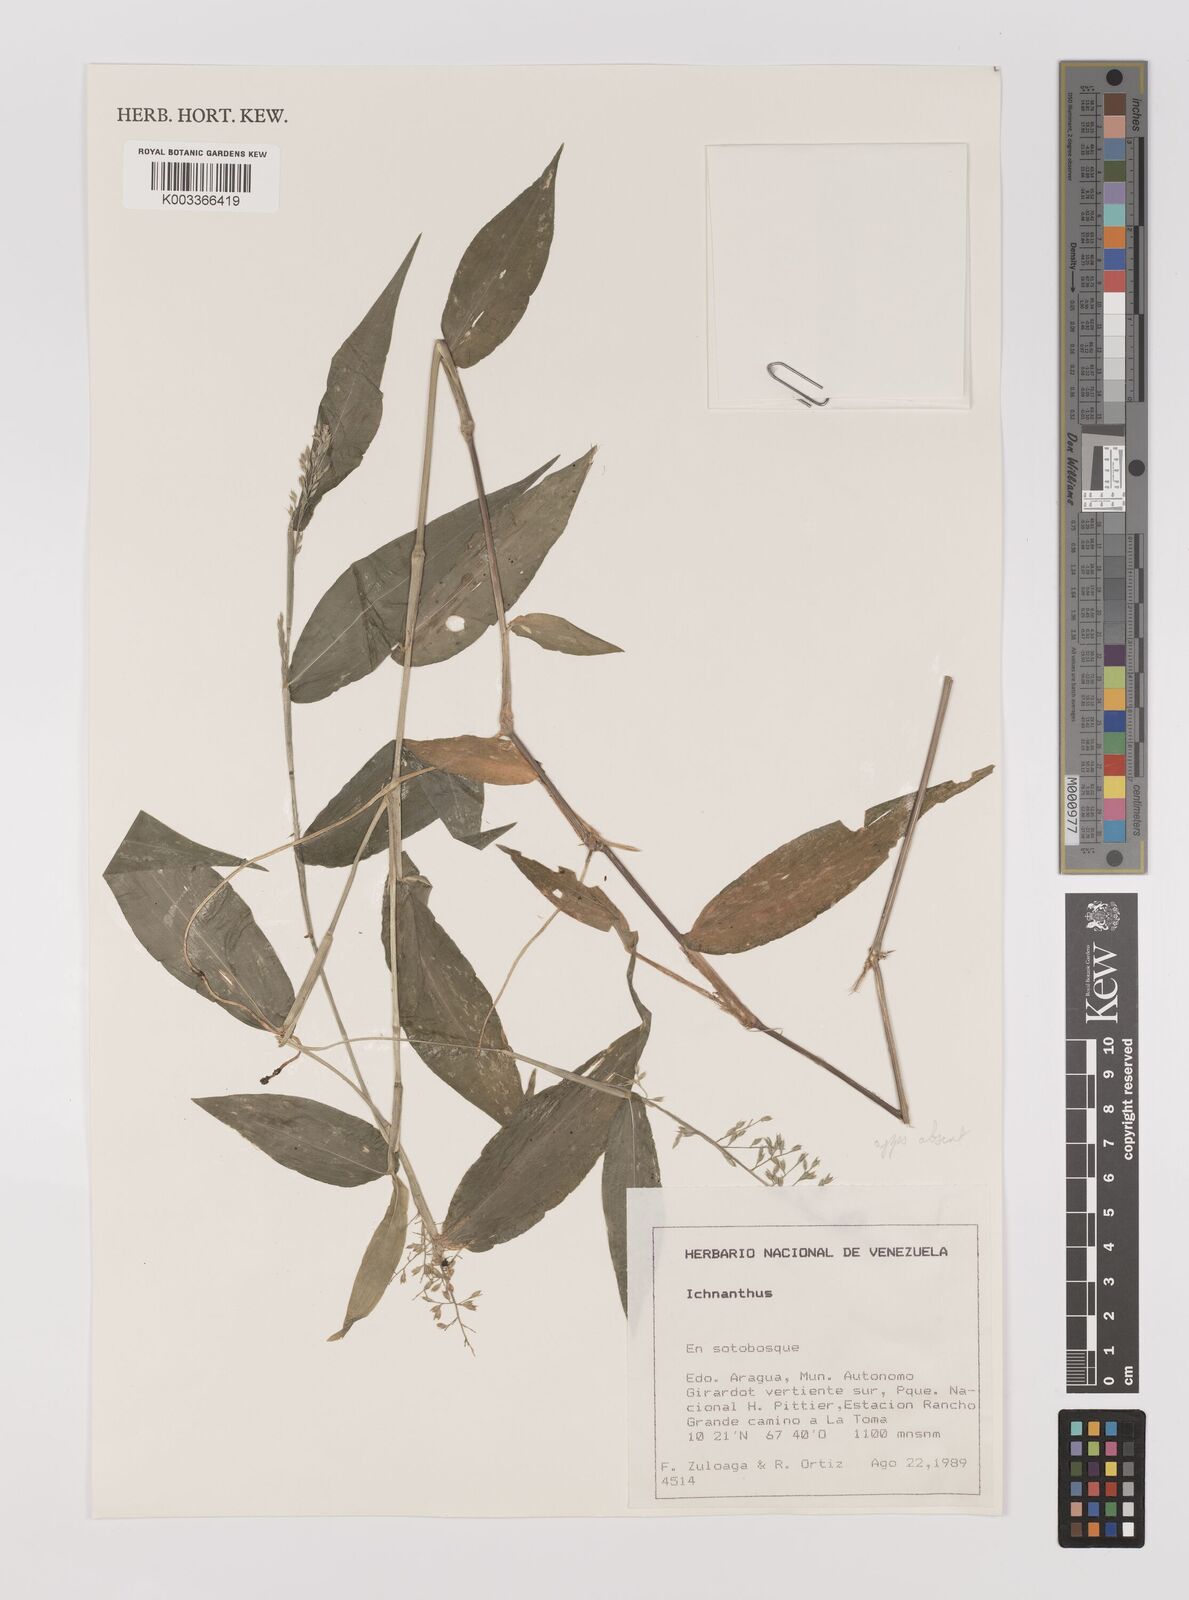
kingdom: Plantae
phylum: Tracheophyta
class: Liliopsida
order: Poales
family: Poaceae
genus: Ichnanthus
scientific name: Ichnanthus pallens
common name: Water grass
